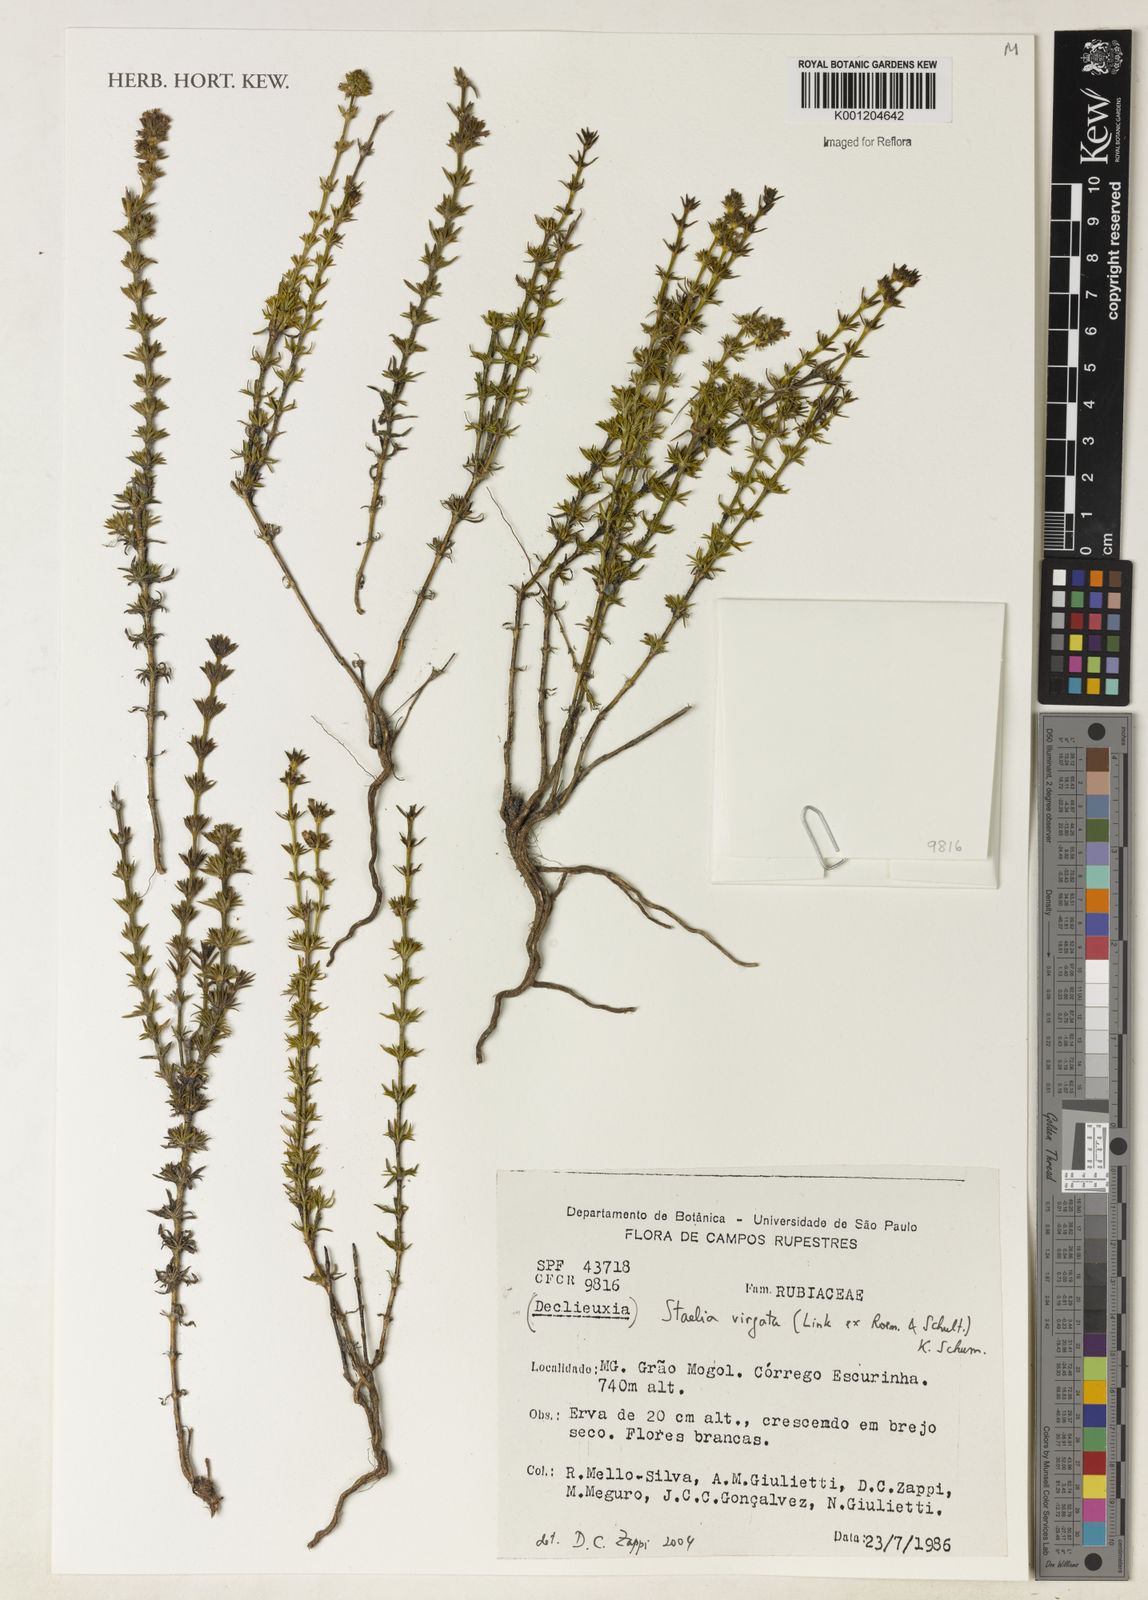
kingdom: Plantae
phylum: Tracheophyta
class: Magnoliopsida
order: Gentianales
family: Rubiaceae
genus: Staelia
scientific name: Staelia virgata
